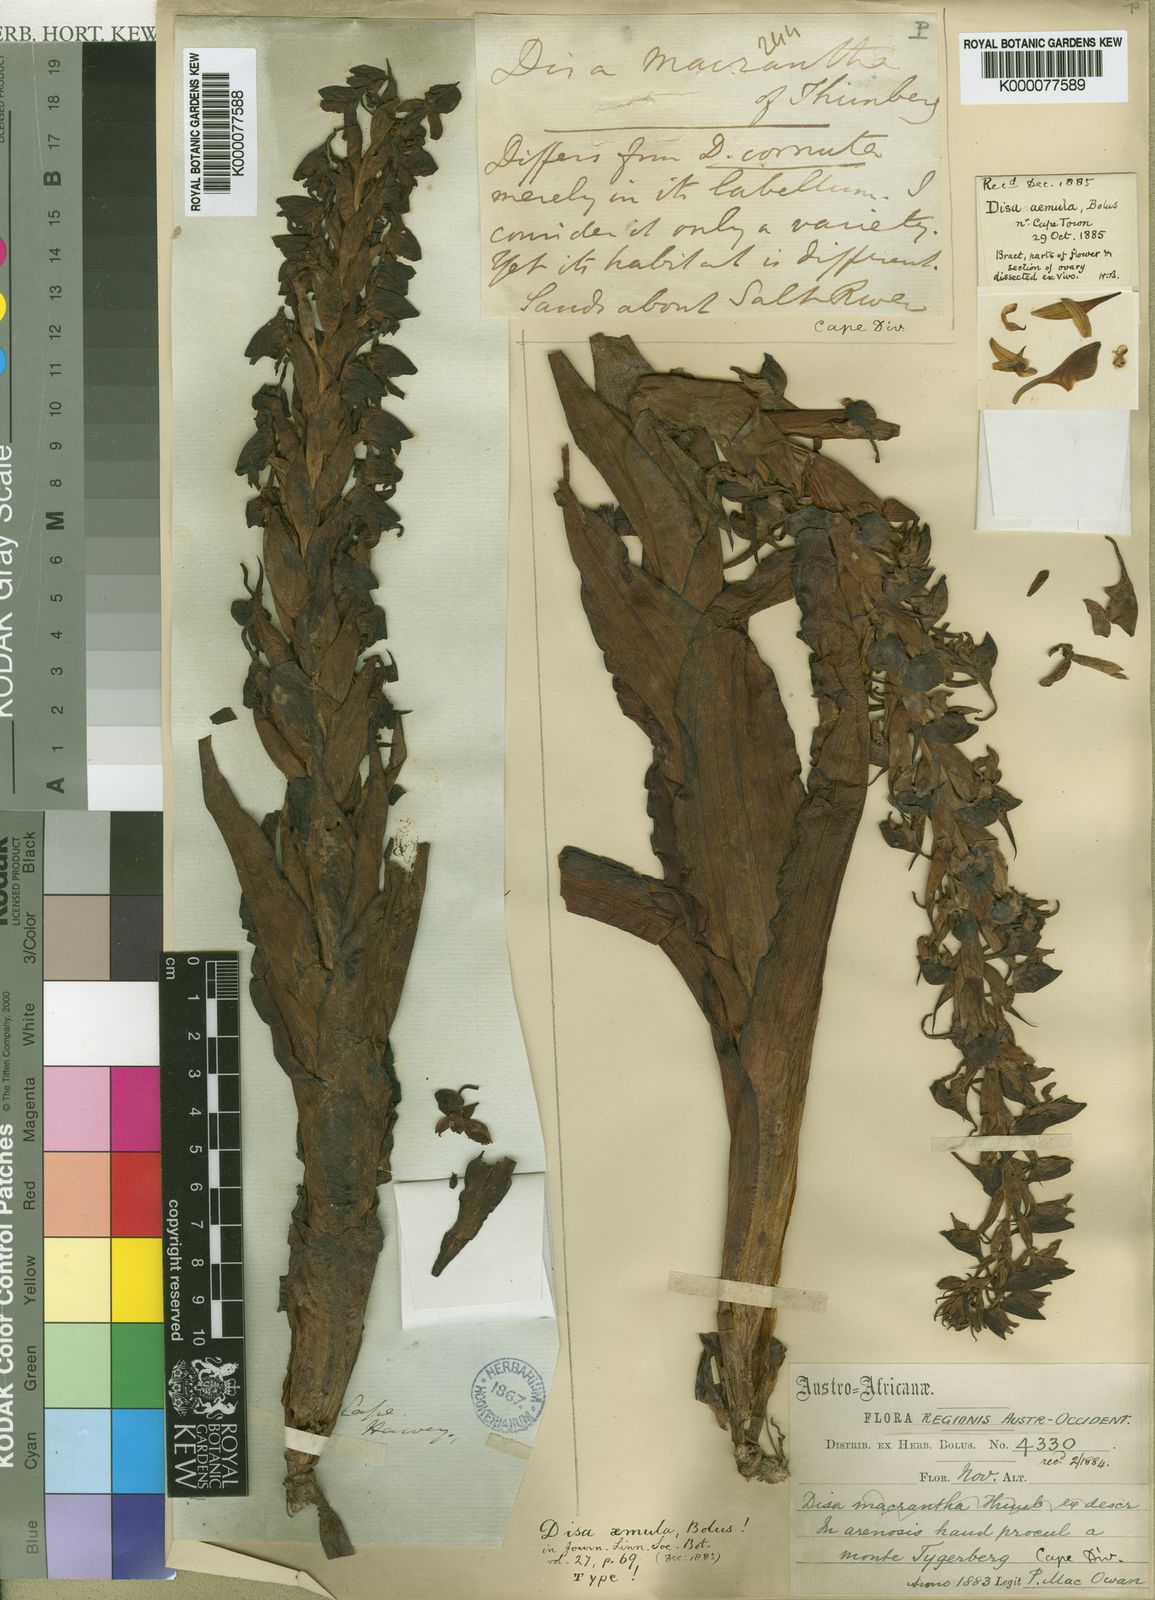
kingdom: Plantae
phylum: Tracheophyta
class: Liliopsida
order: Asparagales
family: Orchidaceae
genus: Disa
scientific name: Disa cornuta
